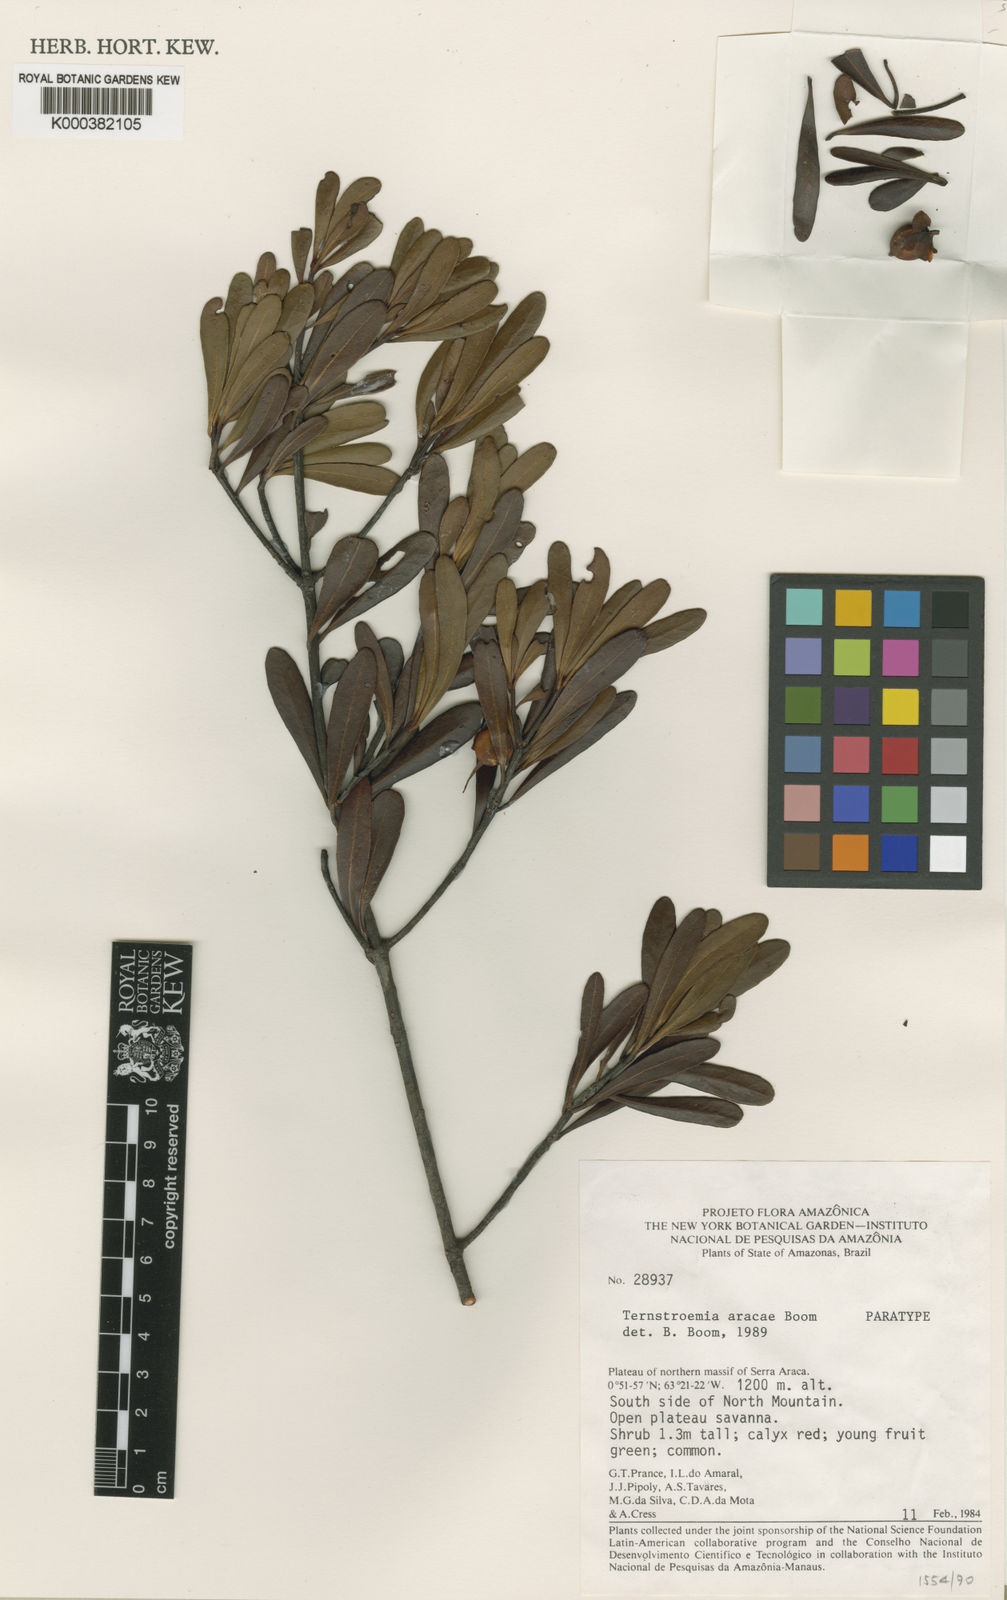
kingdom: Plantae
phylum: Tracheophyta
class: Magnoliopsida
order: Ericales
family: Pentaphylacaceae
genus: Ternstroemia
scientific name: Ternstroemia aracae
